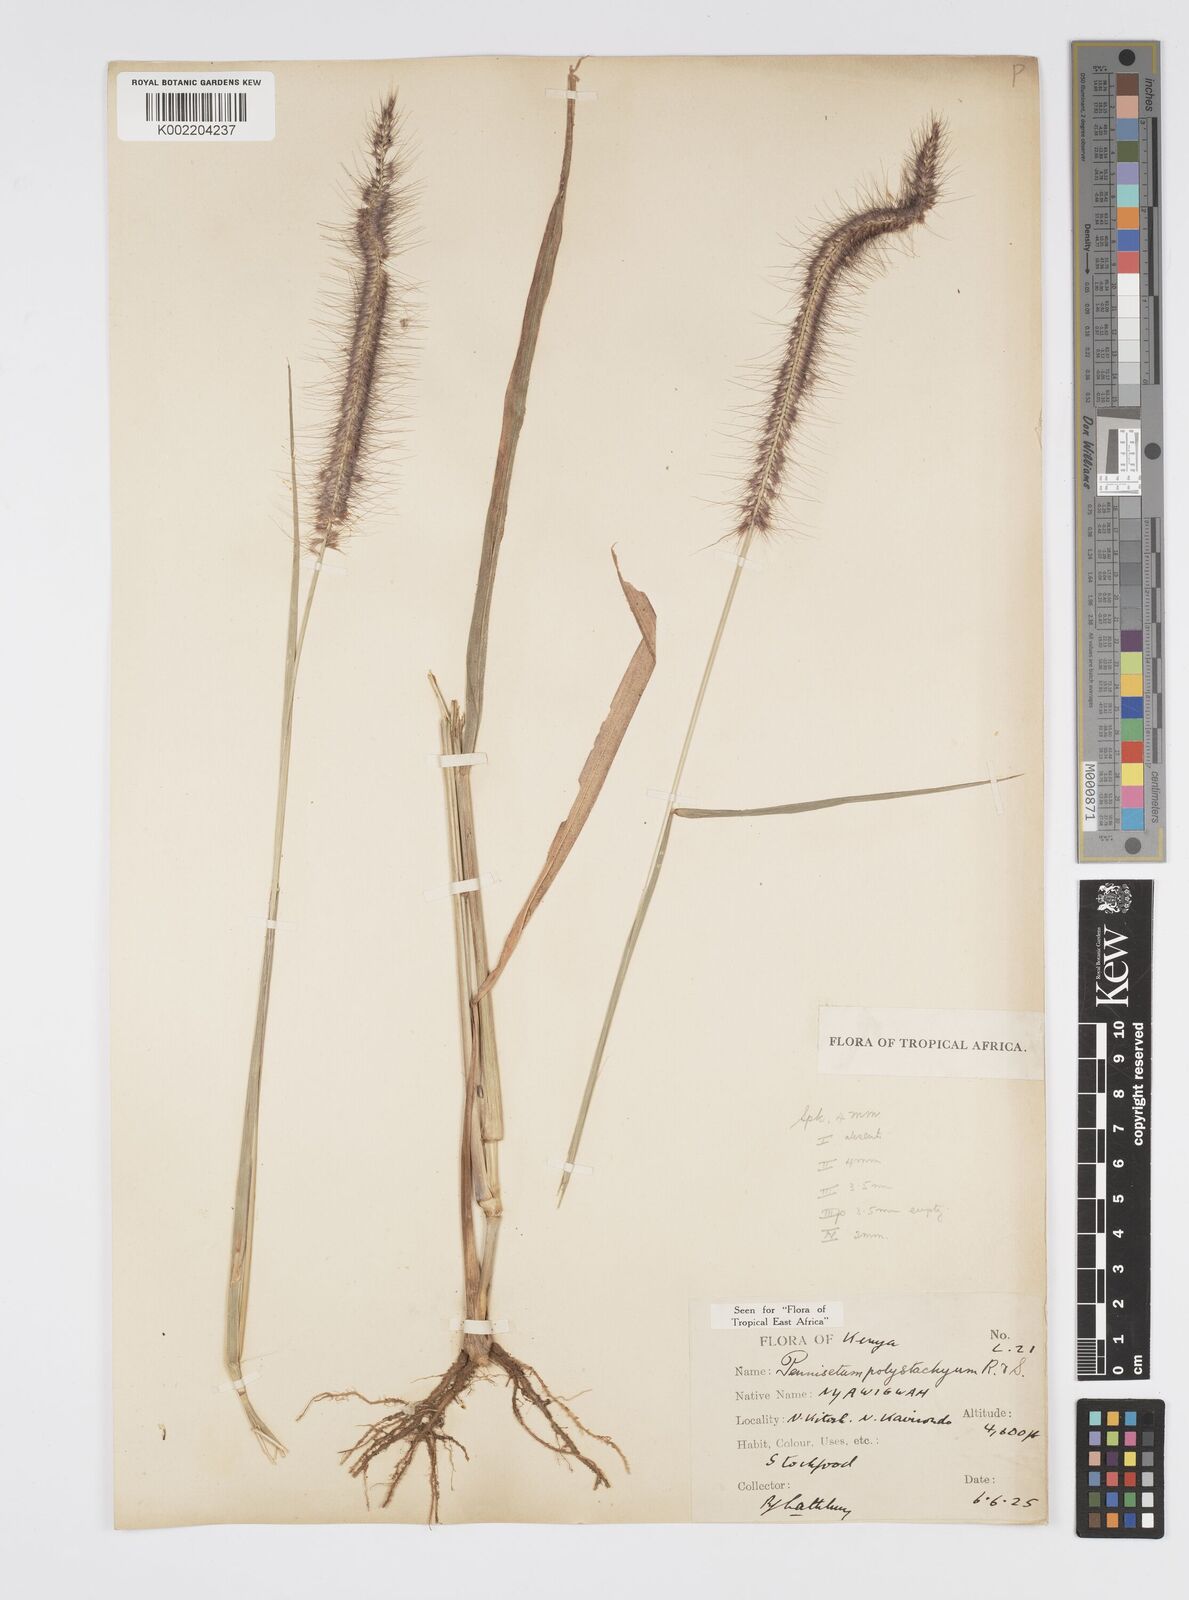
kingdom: Plantae
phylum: Tracheophyta
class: Liliopsida
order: Poales
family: Poaceae
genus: Setaria
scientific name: Setaria parviflora
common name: Knotroot bristle-grass
